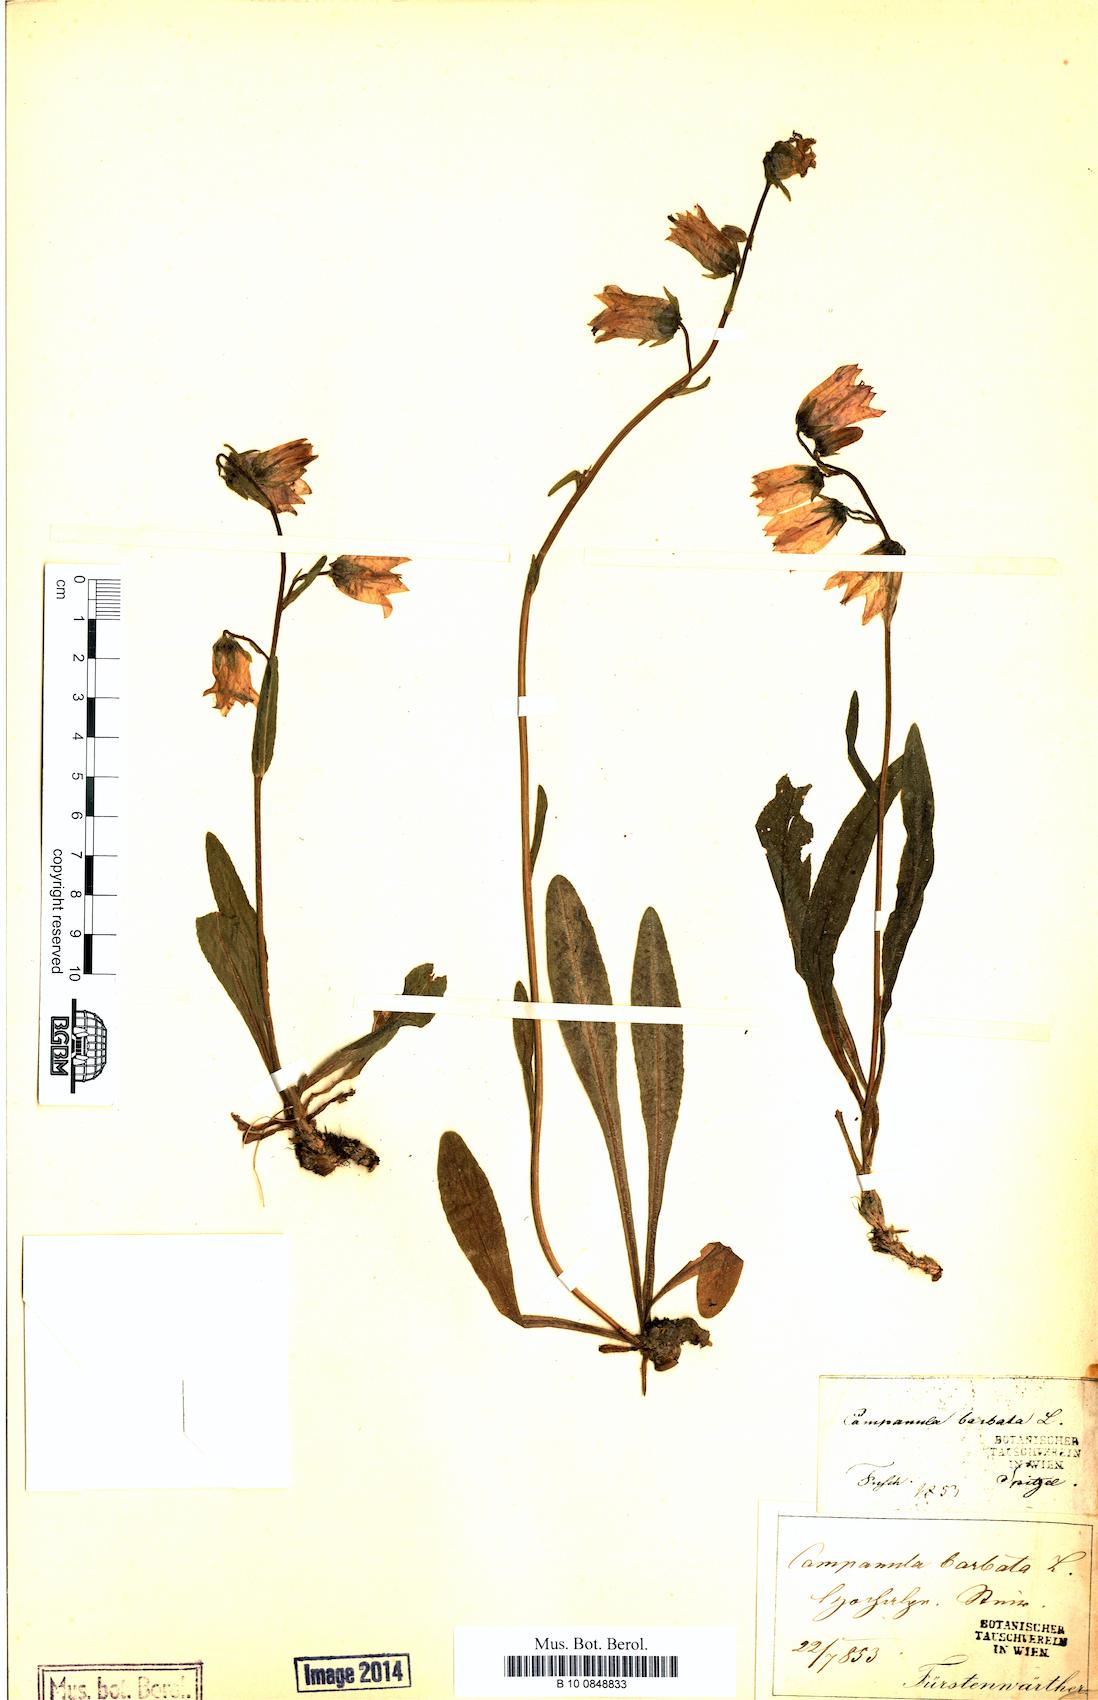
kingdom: Plantae
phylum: Tracheophyta
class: Magnoliopsida
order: Asterales
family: Campanulaceae
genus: Campanula
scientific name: Campanula barbata
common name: Bearded bellflower
